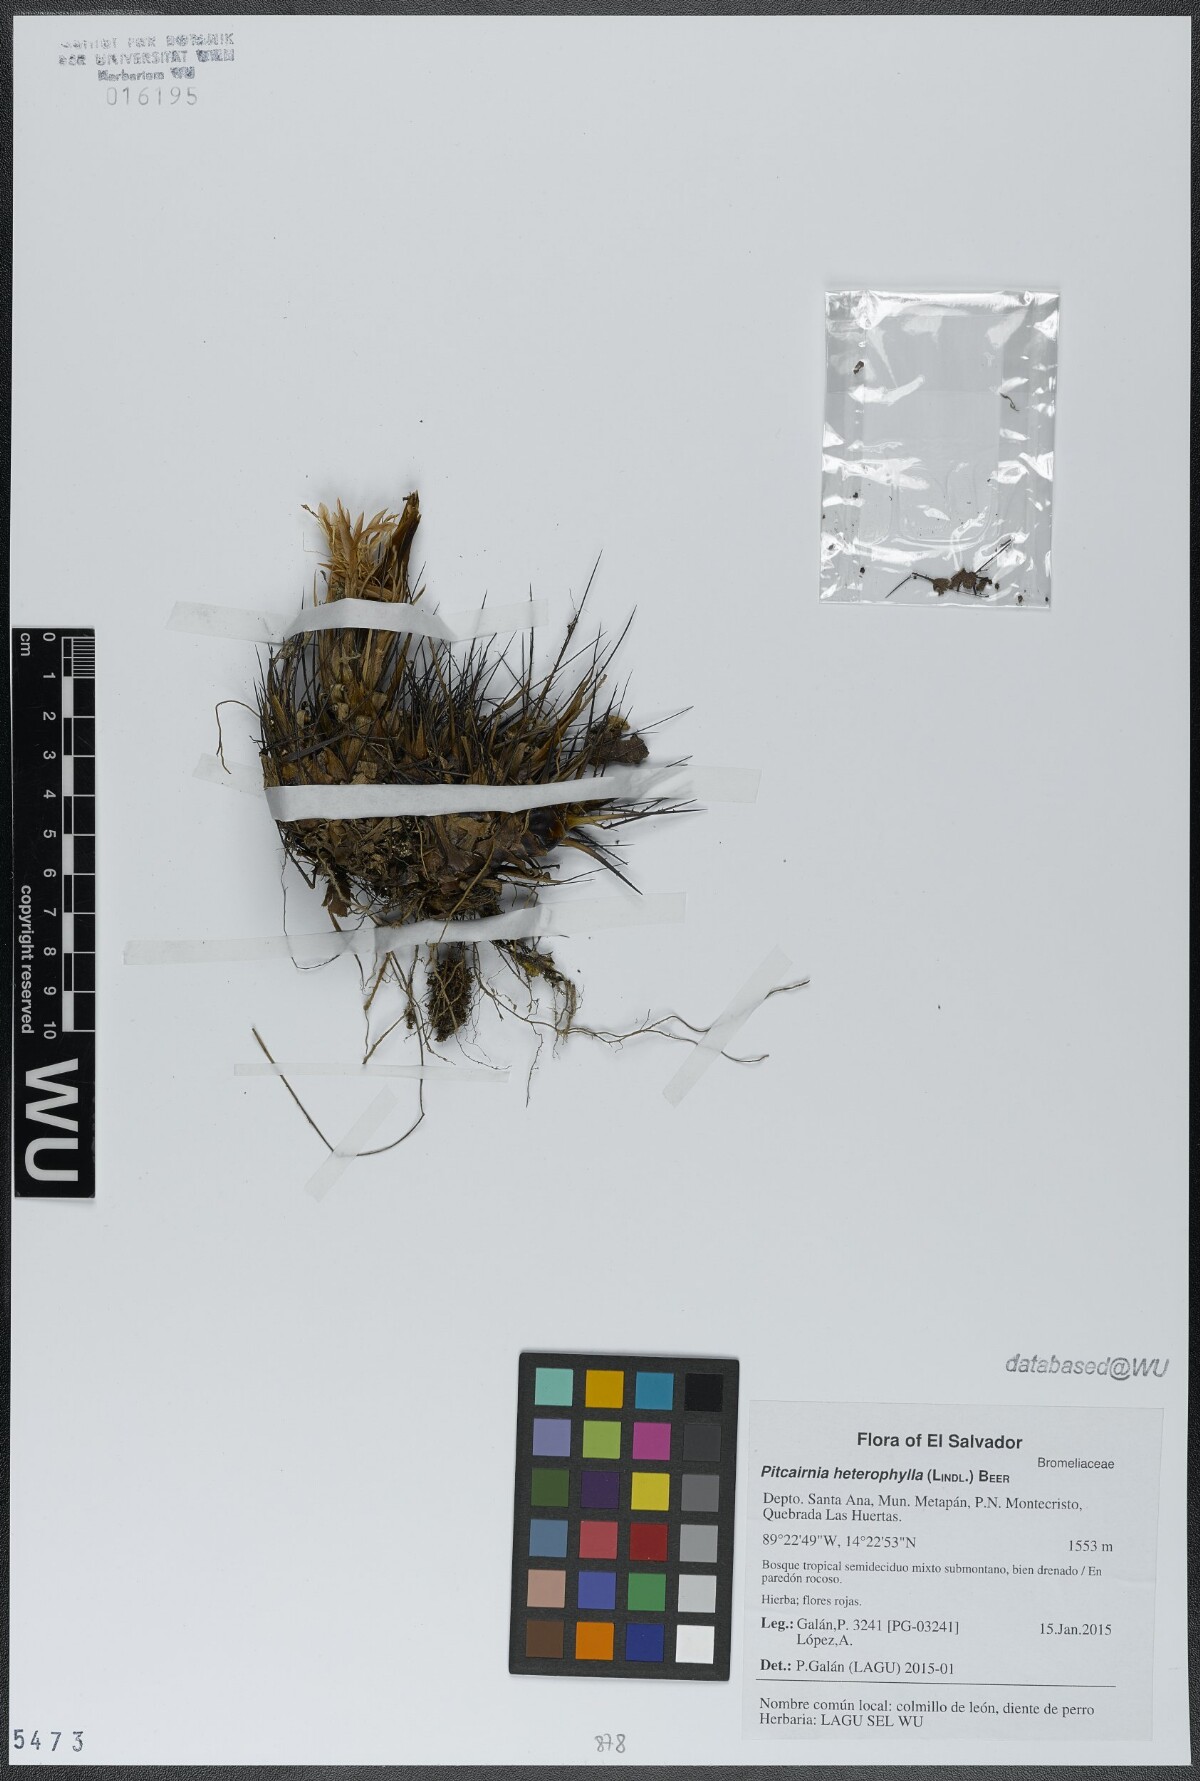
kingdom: Plantae
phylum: Tracheophyta
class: Liliopsida
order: Poales
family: Bromeliaceae
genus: Pitcairnia
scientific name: Pitcairnia heterophylla
